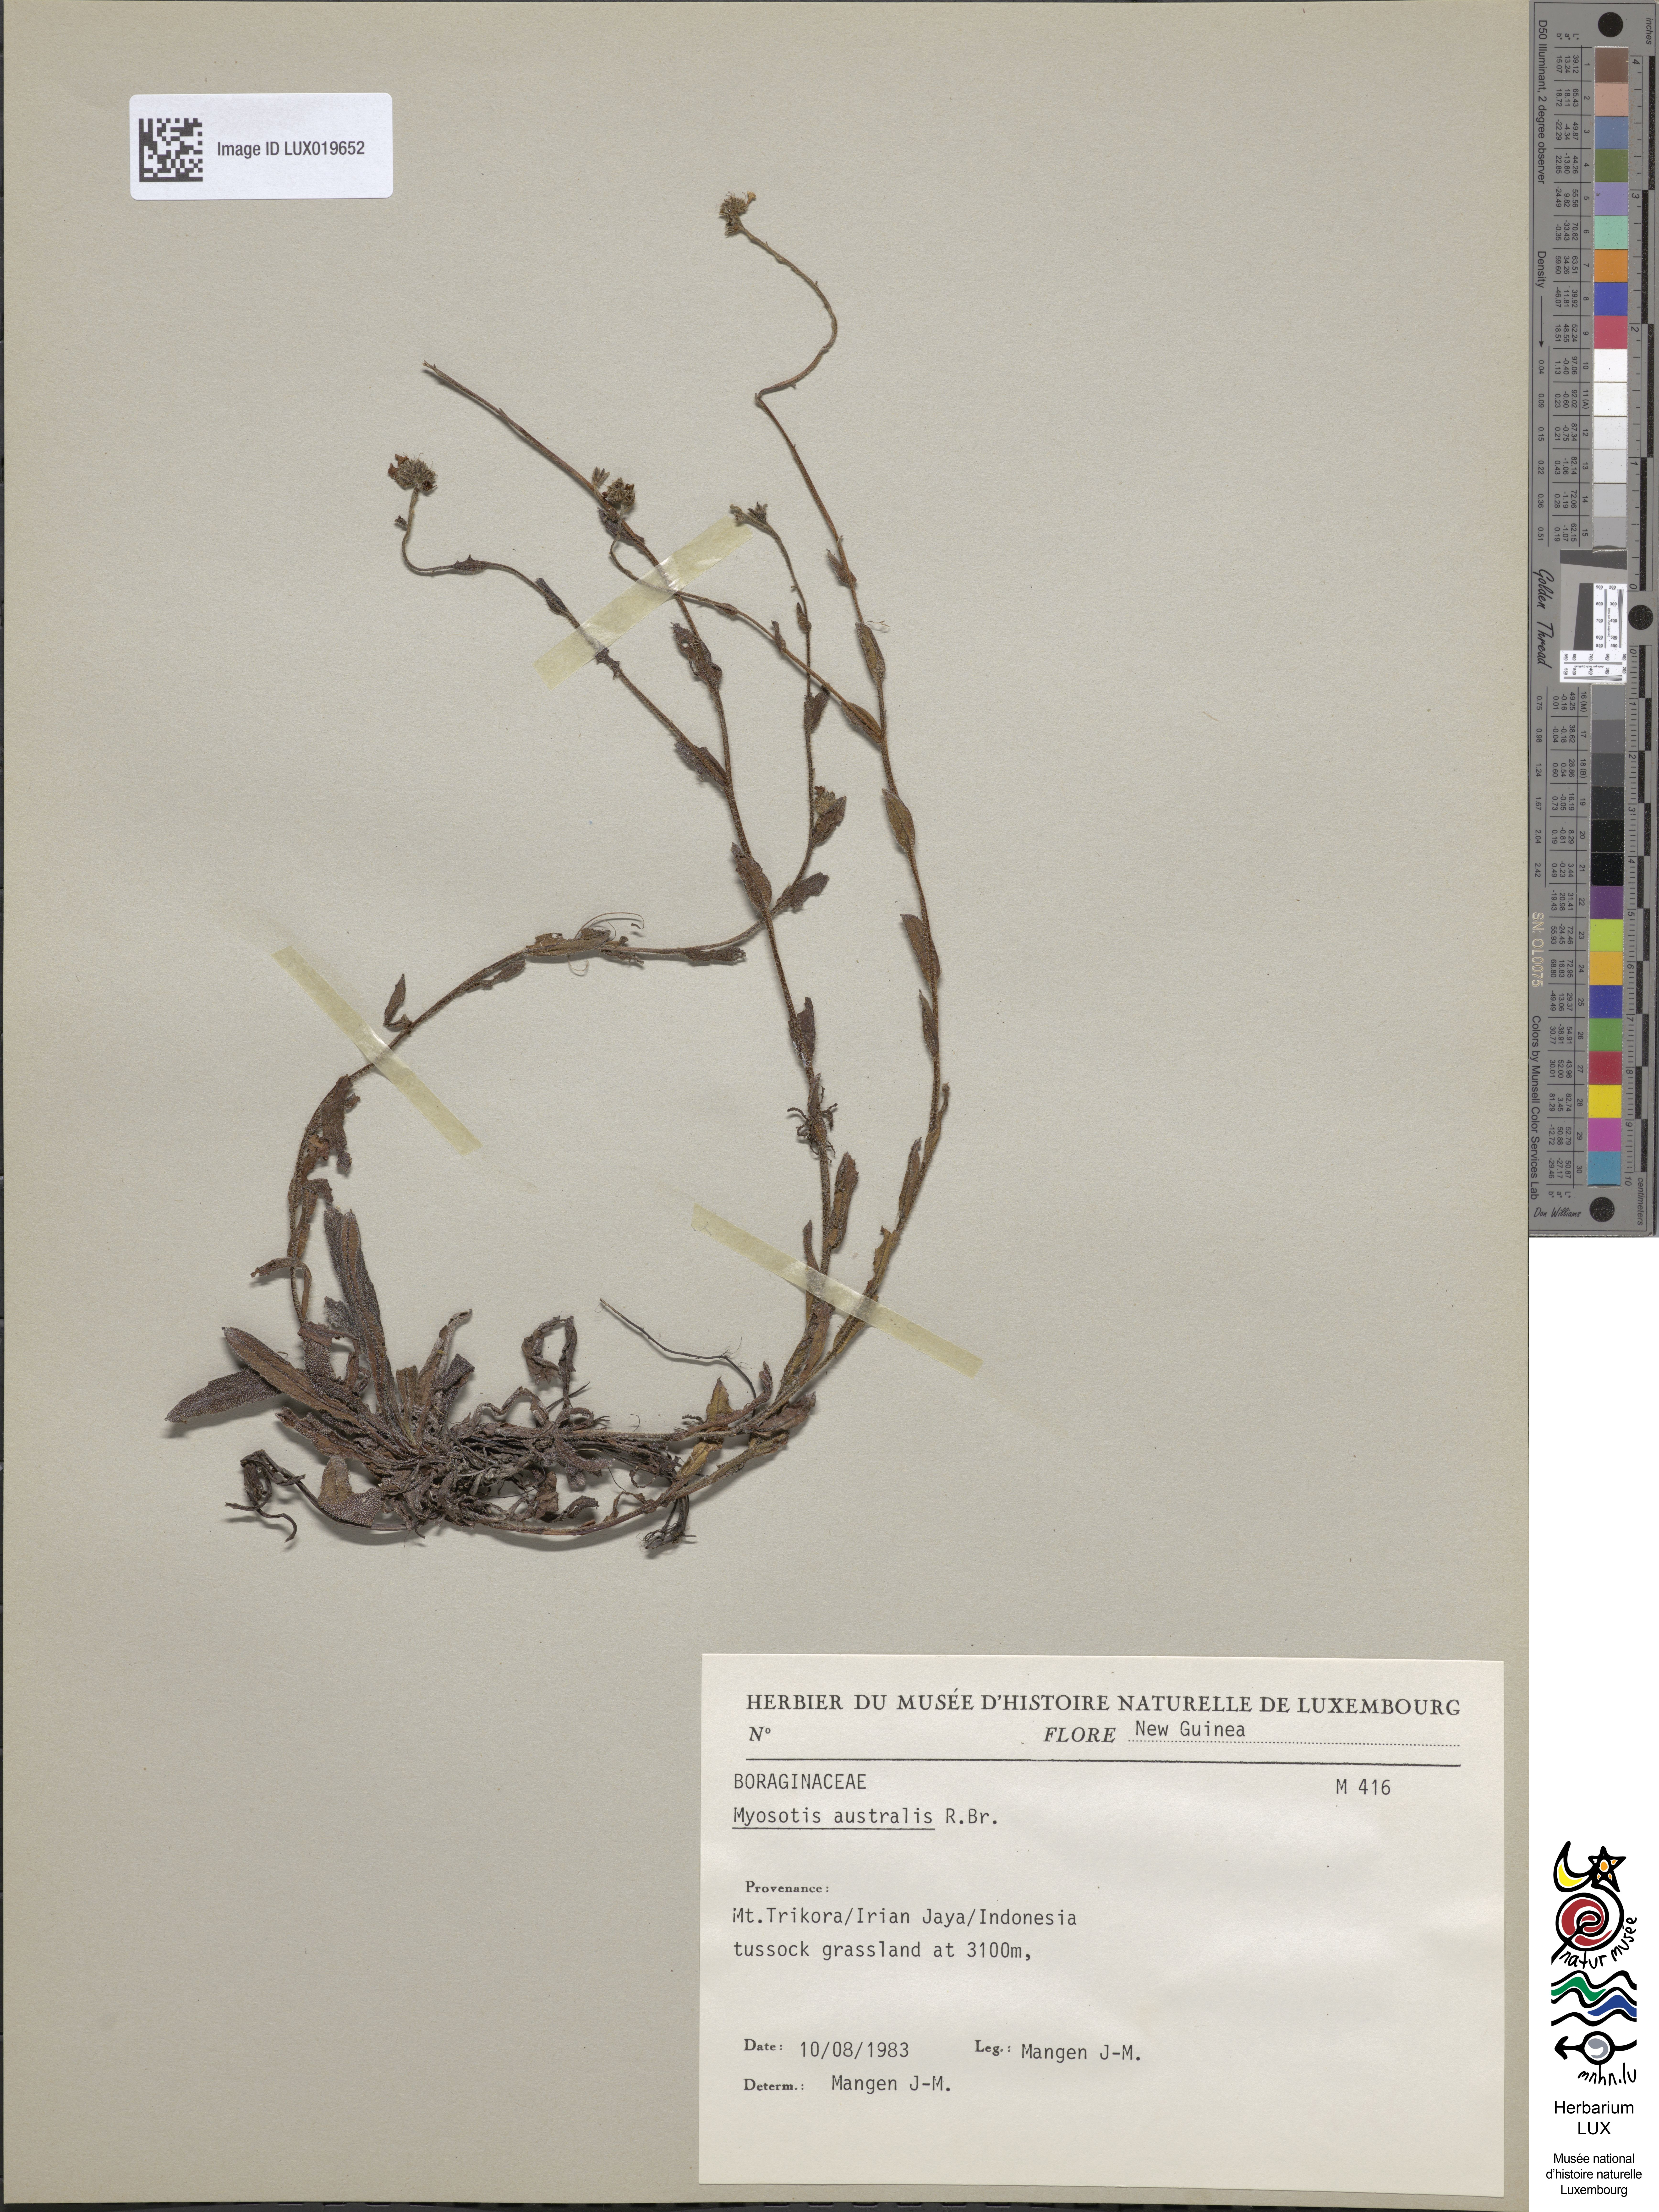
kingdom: Plantae
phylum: Tracheophyta
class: Magnoliopsida
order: Boraginales
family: Boraginaceae
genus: Myosotis
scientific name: Myosotis australis
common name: Australian forget-me-not
